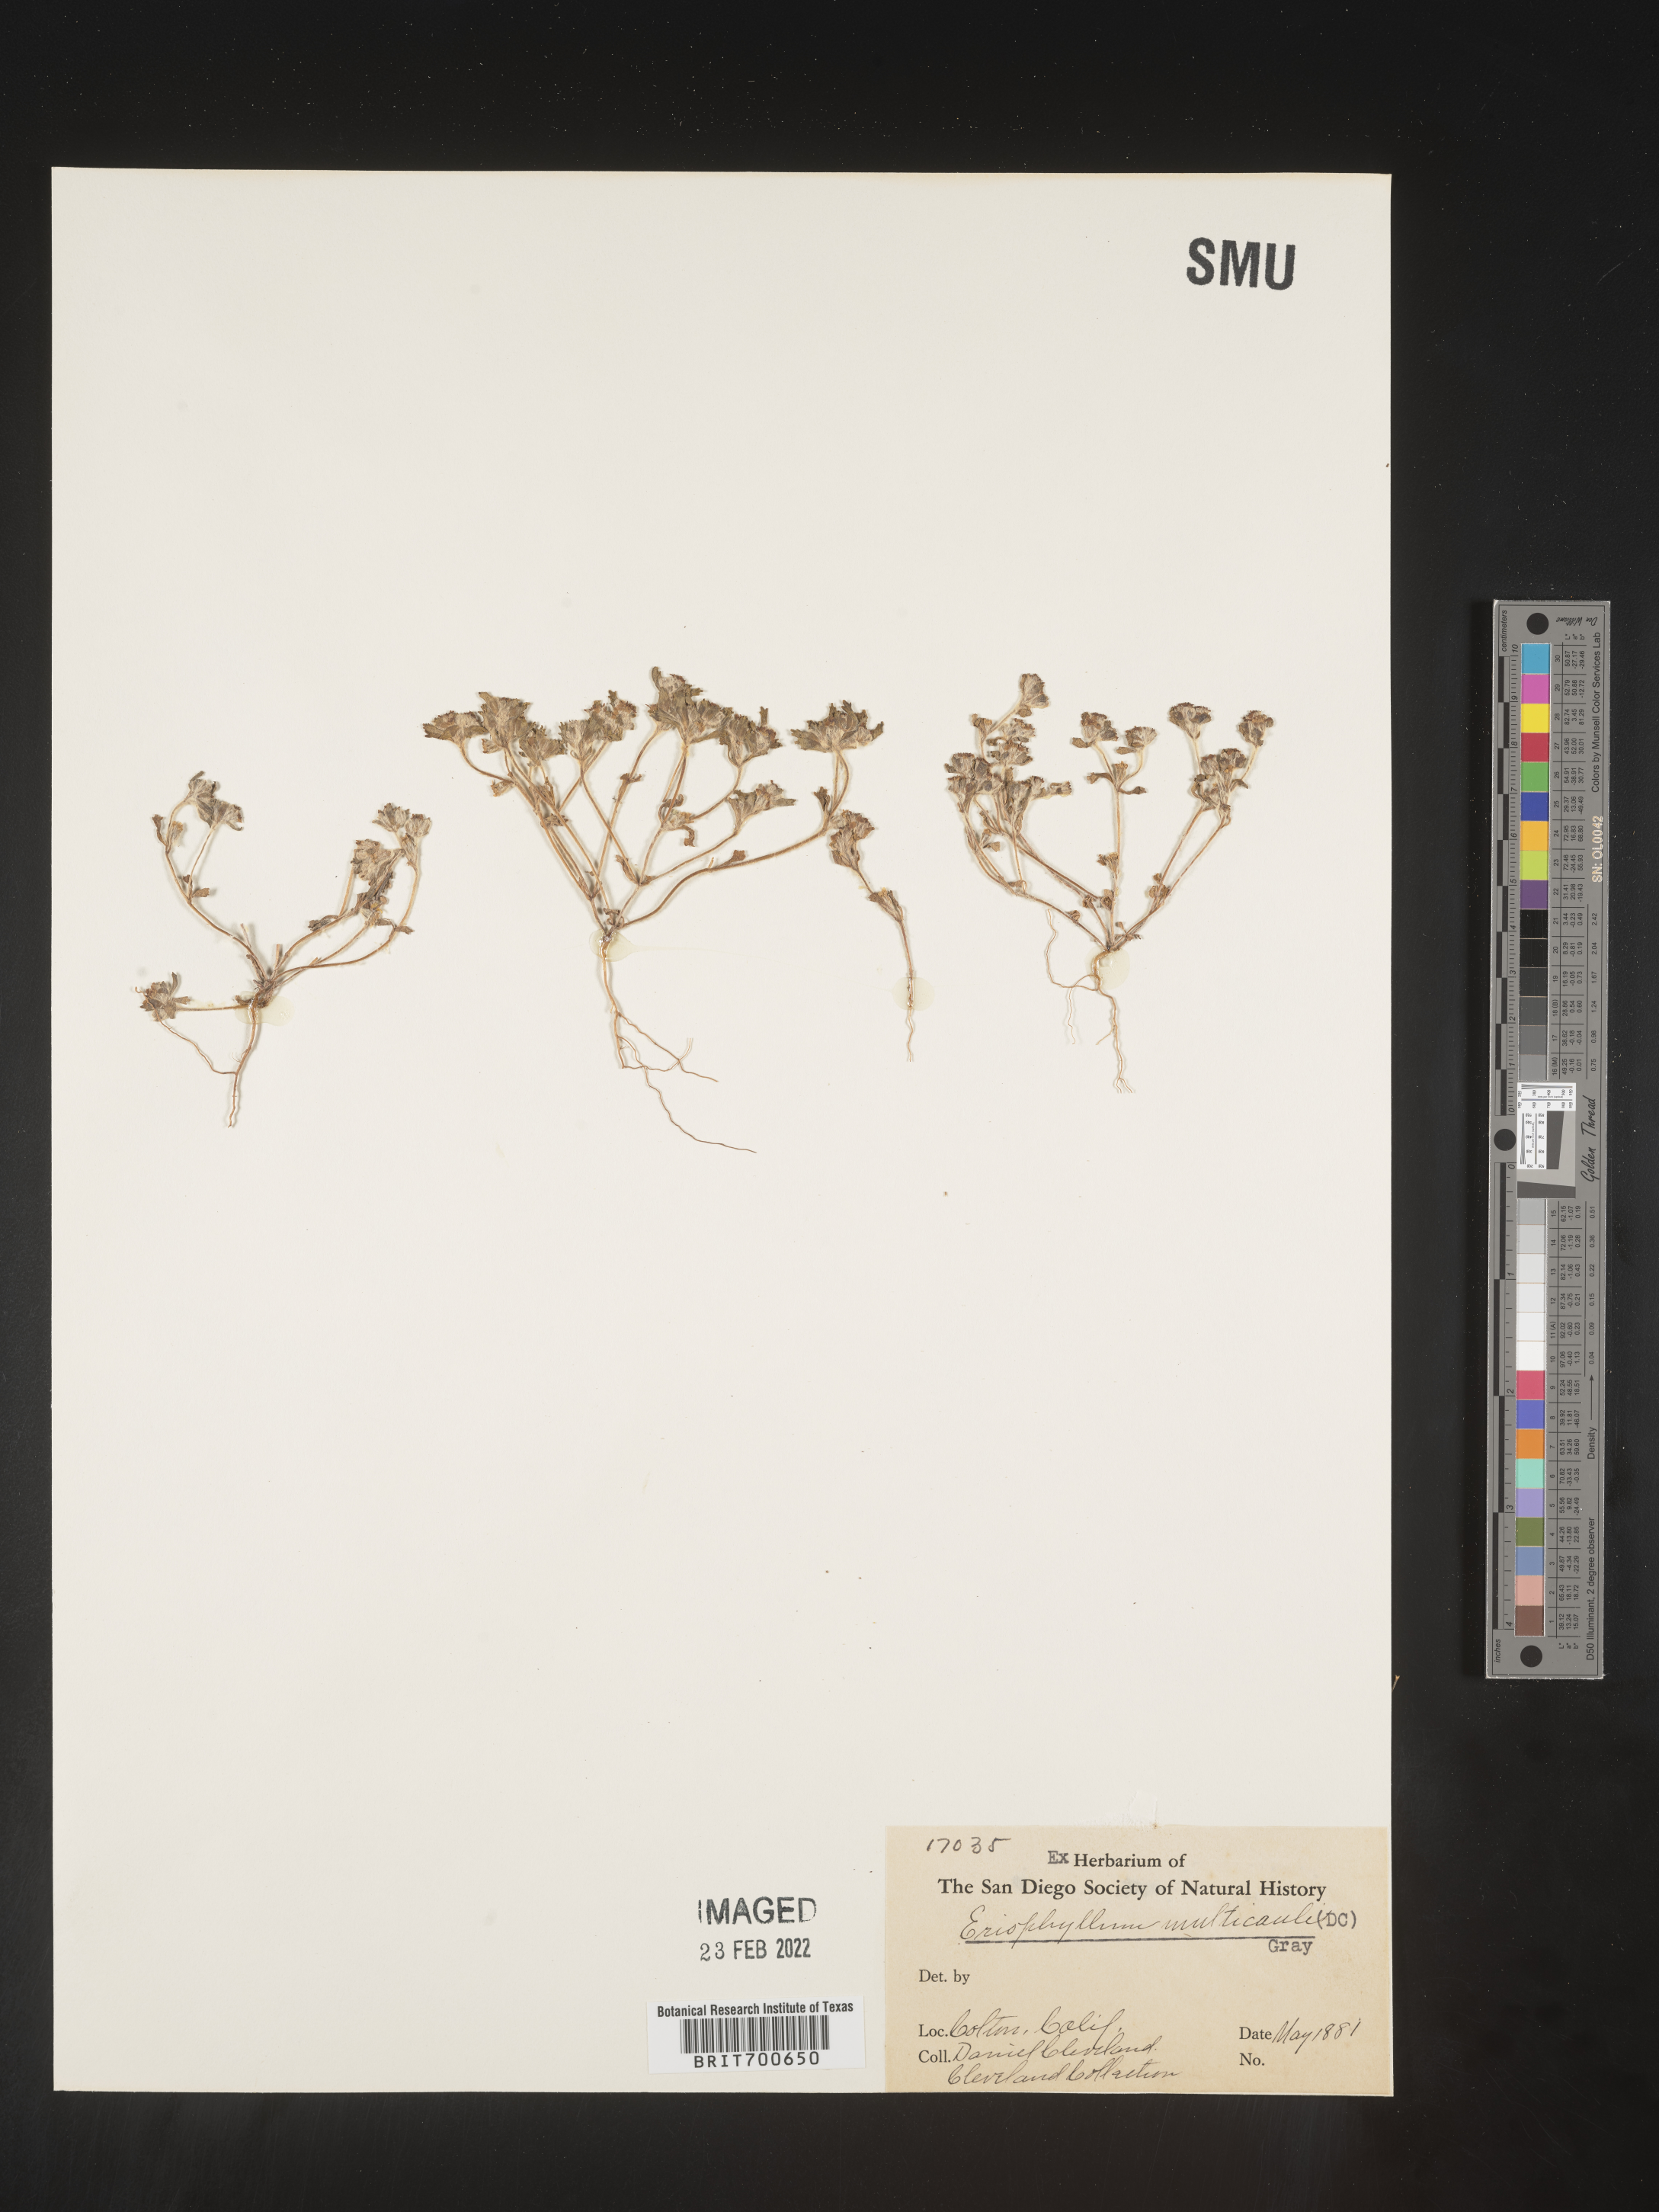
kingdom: Plantae
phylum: Tracheophyta
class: Magnoliopsida
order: Asterales
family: Asteraceae
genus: Eriophyllum
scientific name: Eriophyllum multicaule
